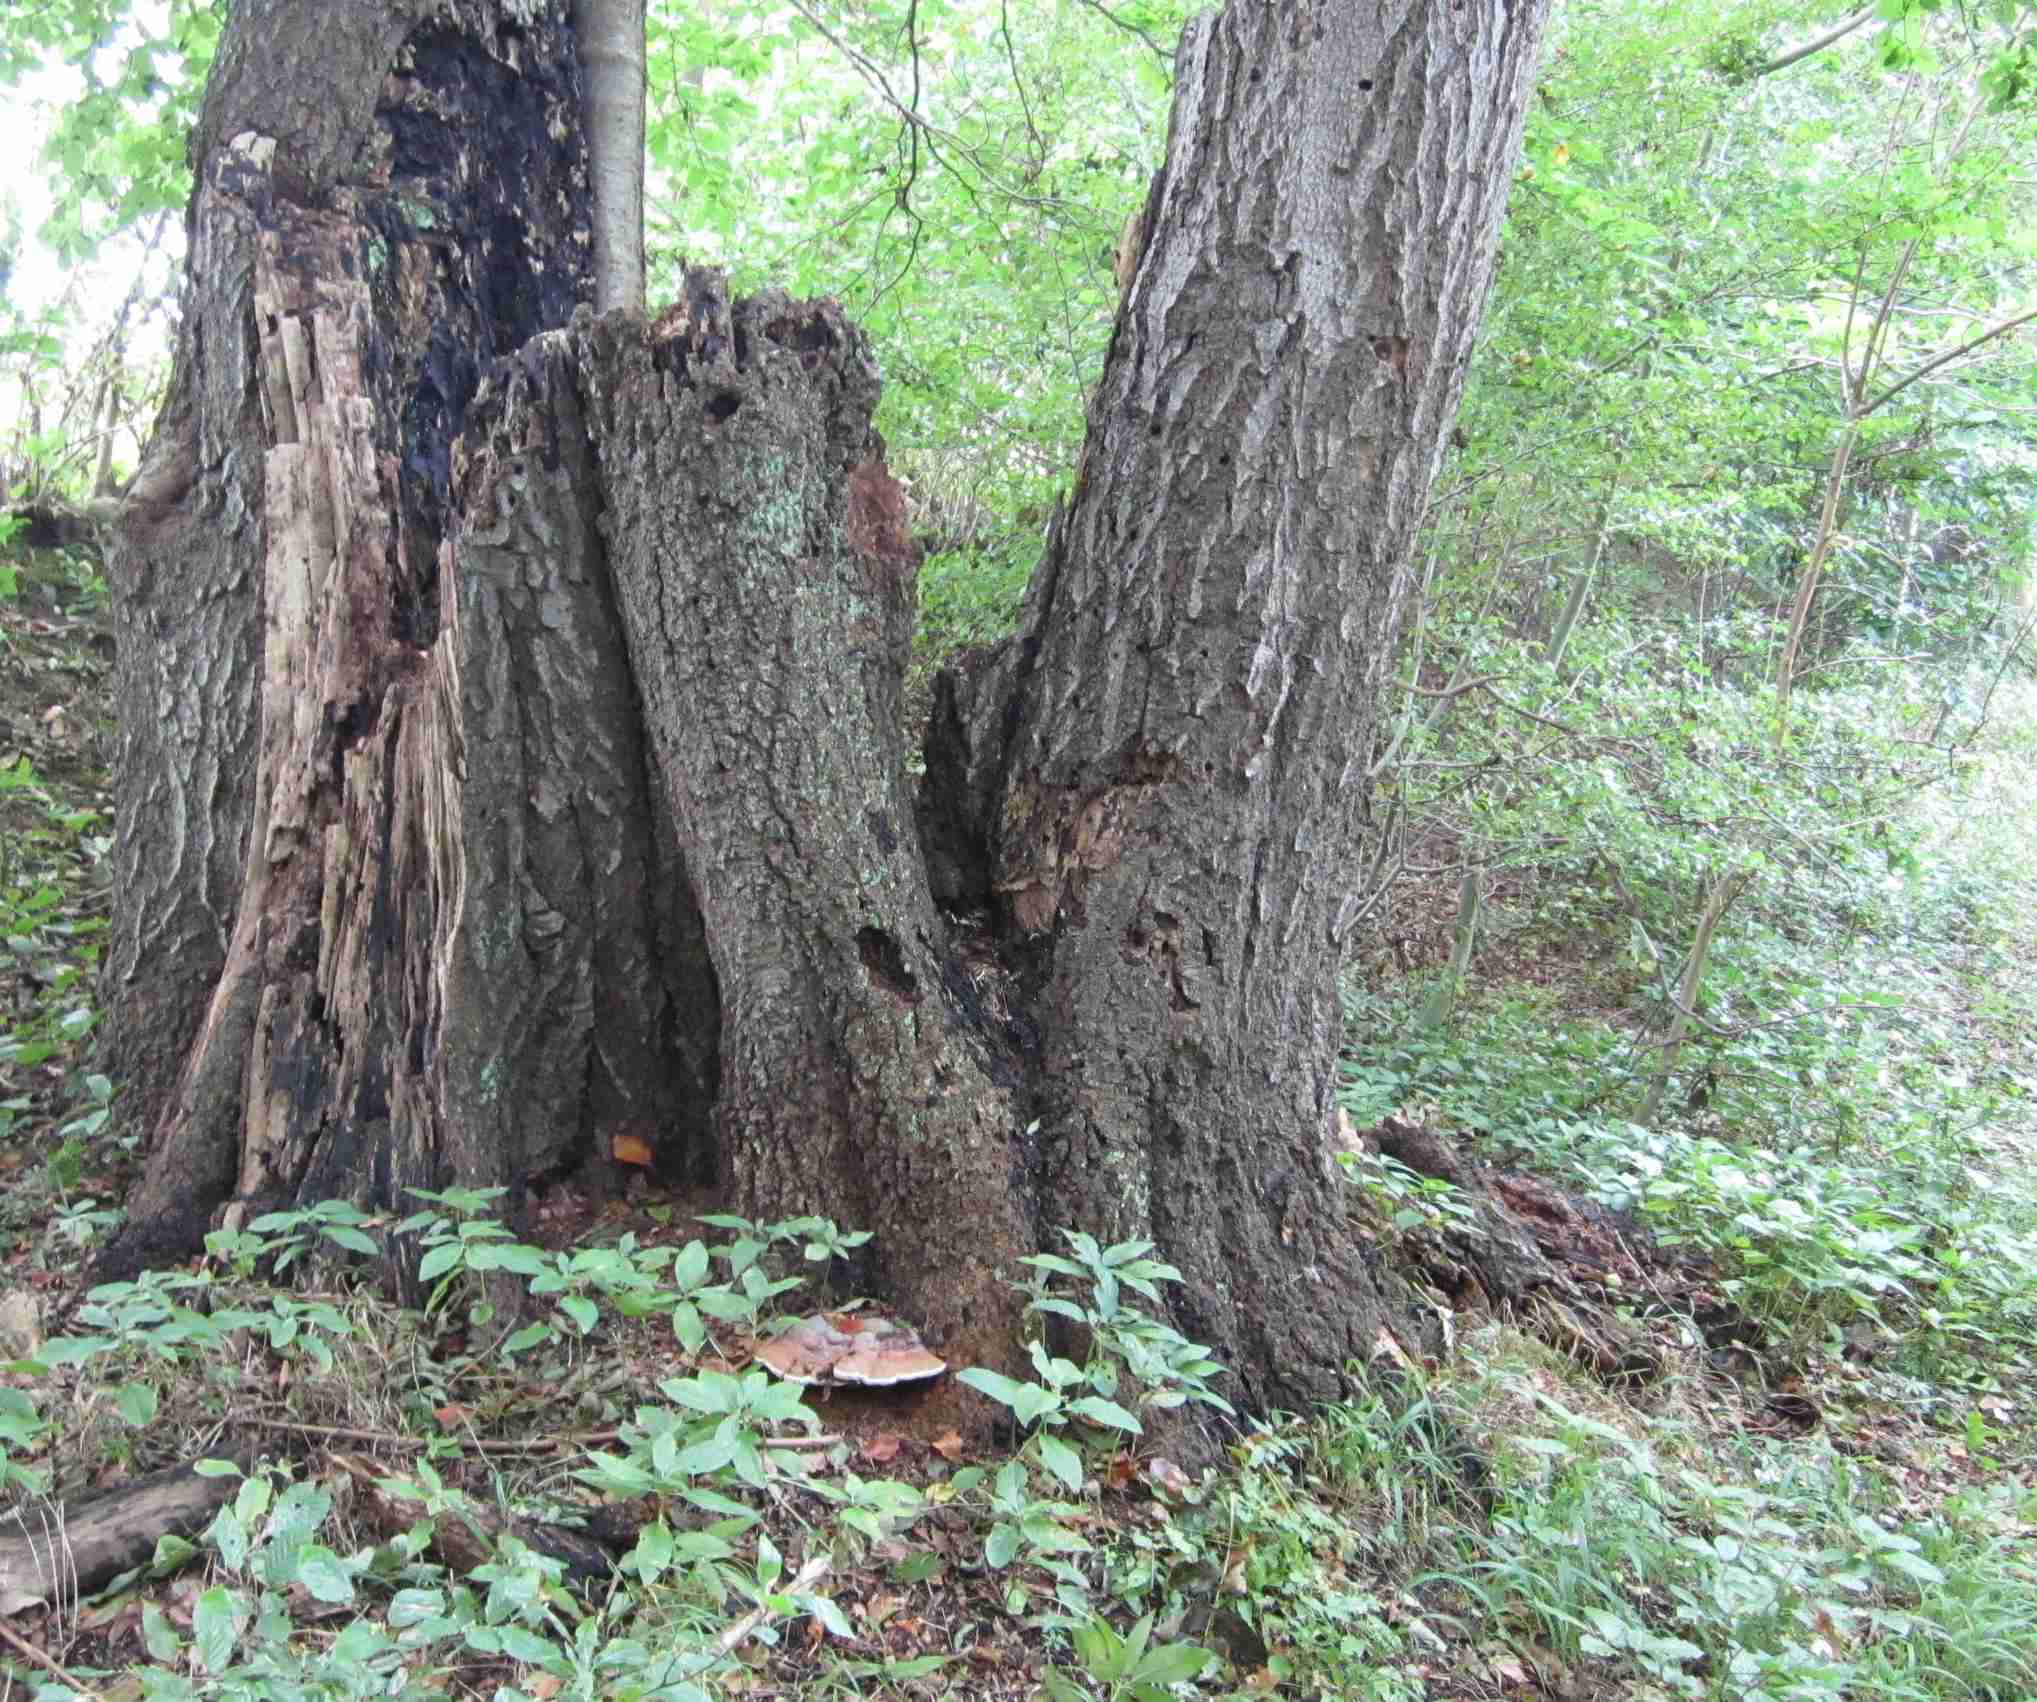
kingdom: Fungi
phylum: Basidiomycota
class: Agaricomycetes
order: Polyporales
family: Polyporaceae
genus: Ganoderma
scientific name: Ganoderma pfeifferi
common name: kobberrød lakporesvamp
